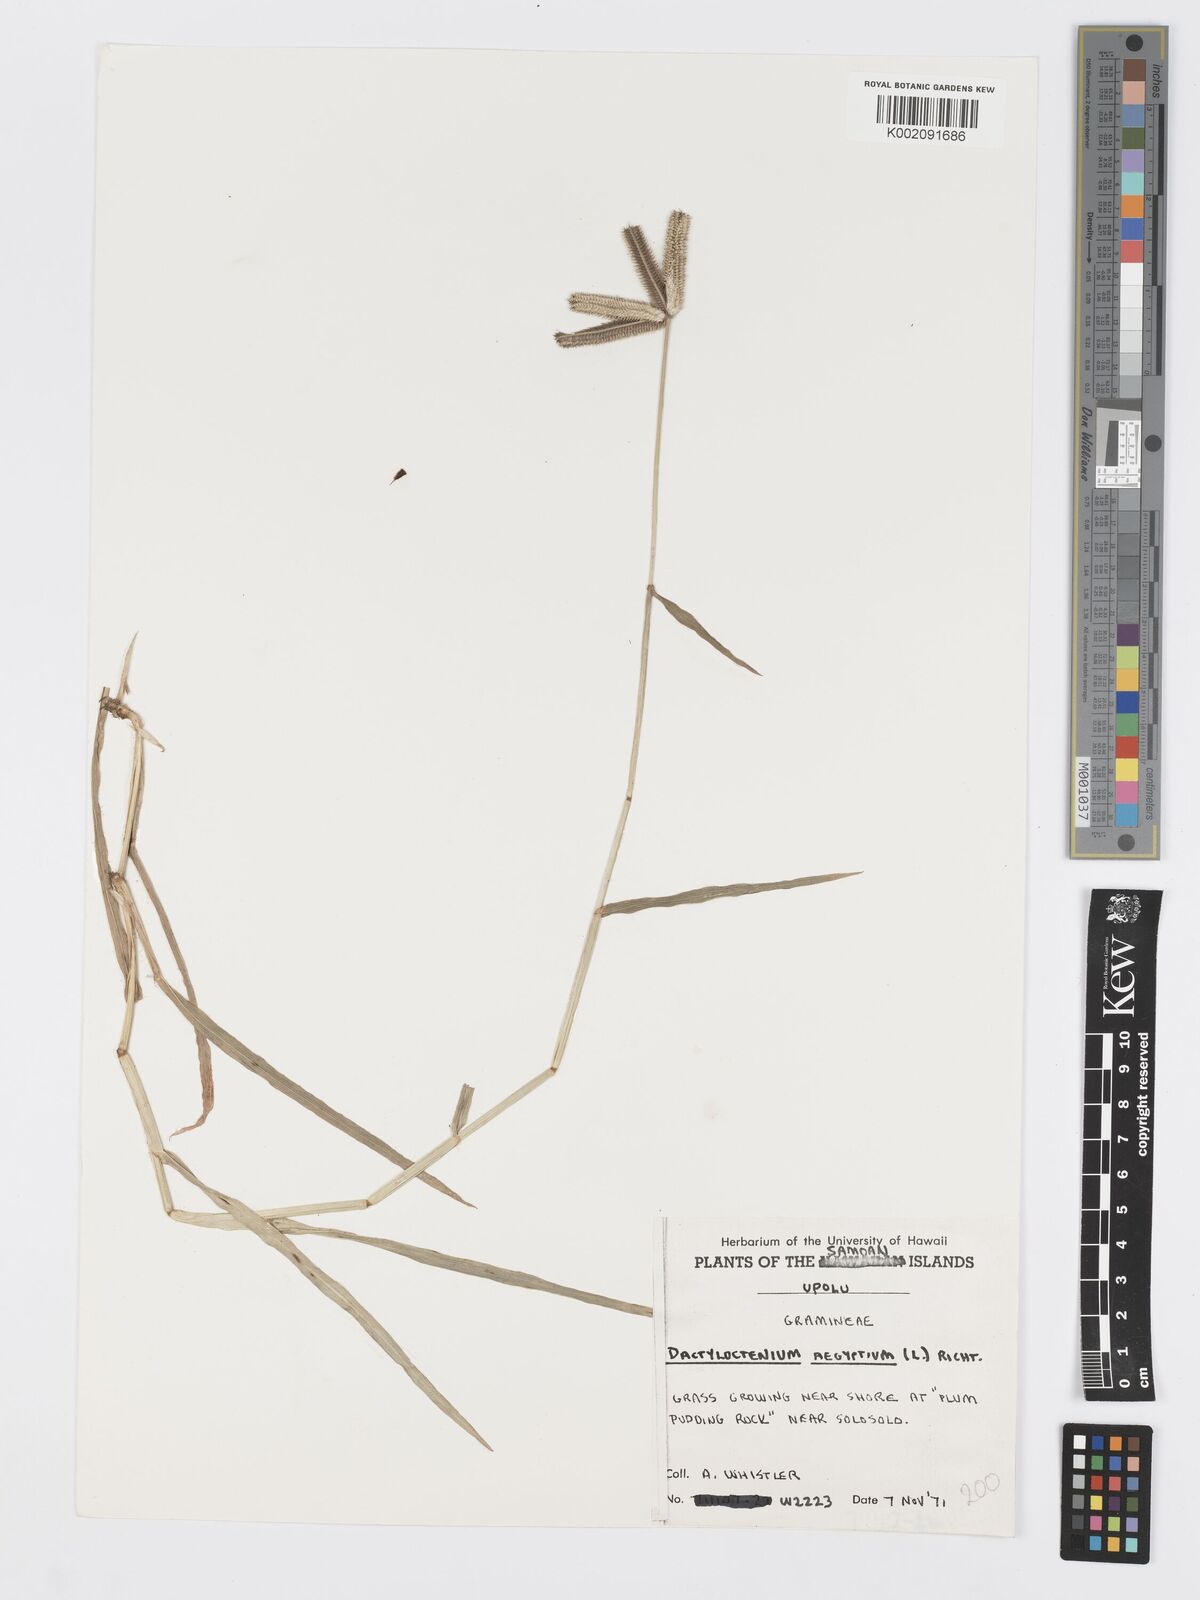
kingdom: Plantae
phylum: Tracheophyta
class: Liliopsida
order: Poales
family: Poaceae
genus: Dactyloctenium
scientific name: Dactyloctenium aegyptium
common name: Egyptian grass
